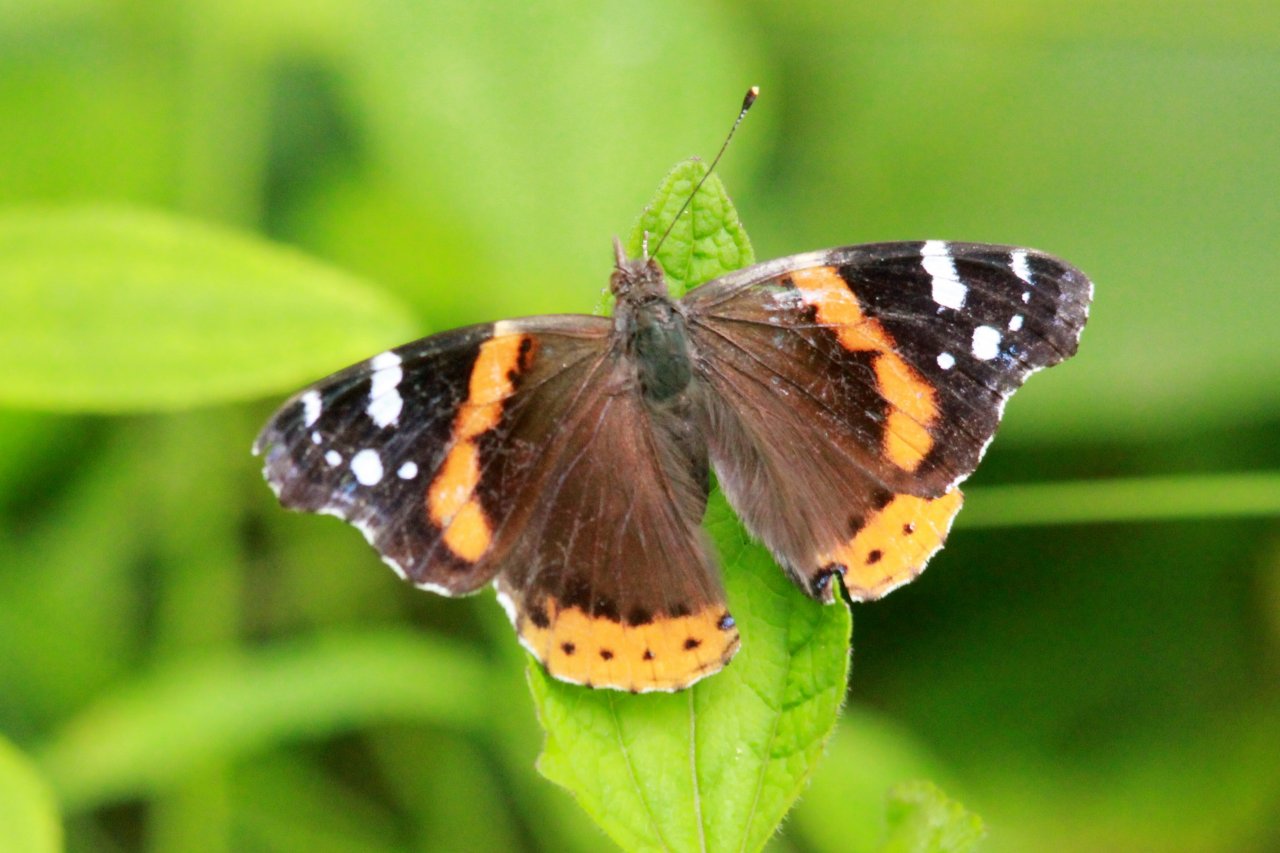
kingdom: Animalia
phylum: Arthropoda
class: Insecta
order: Lepidoptera
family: Nymphalidae
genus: Vanessa
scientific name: Vanessa atalanta
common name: Red Admiral
